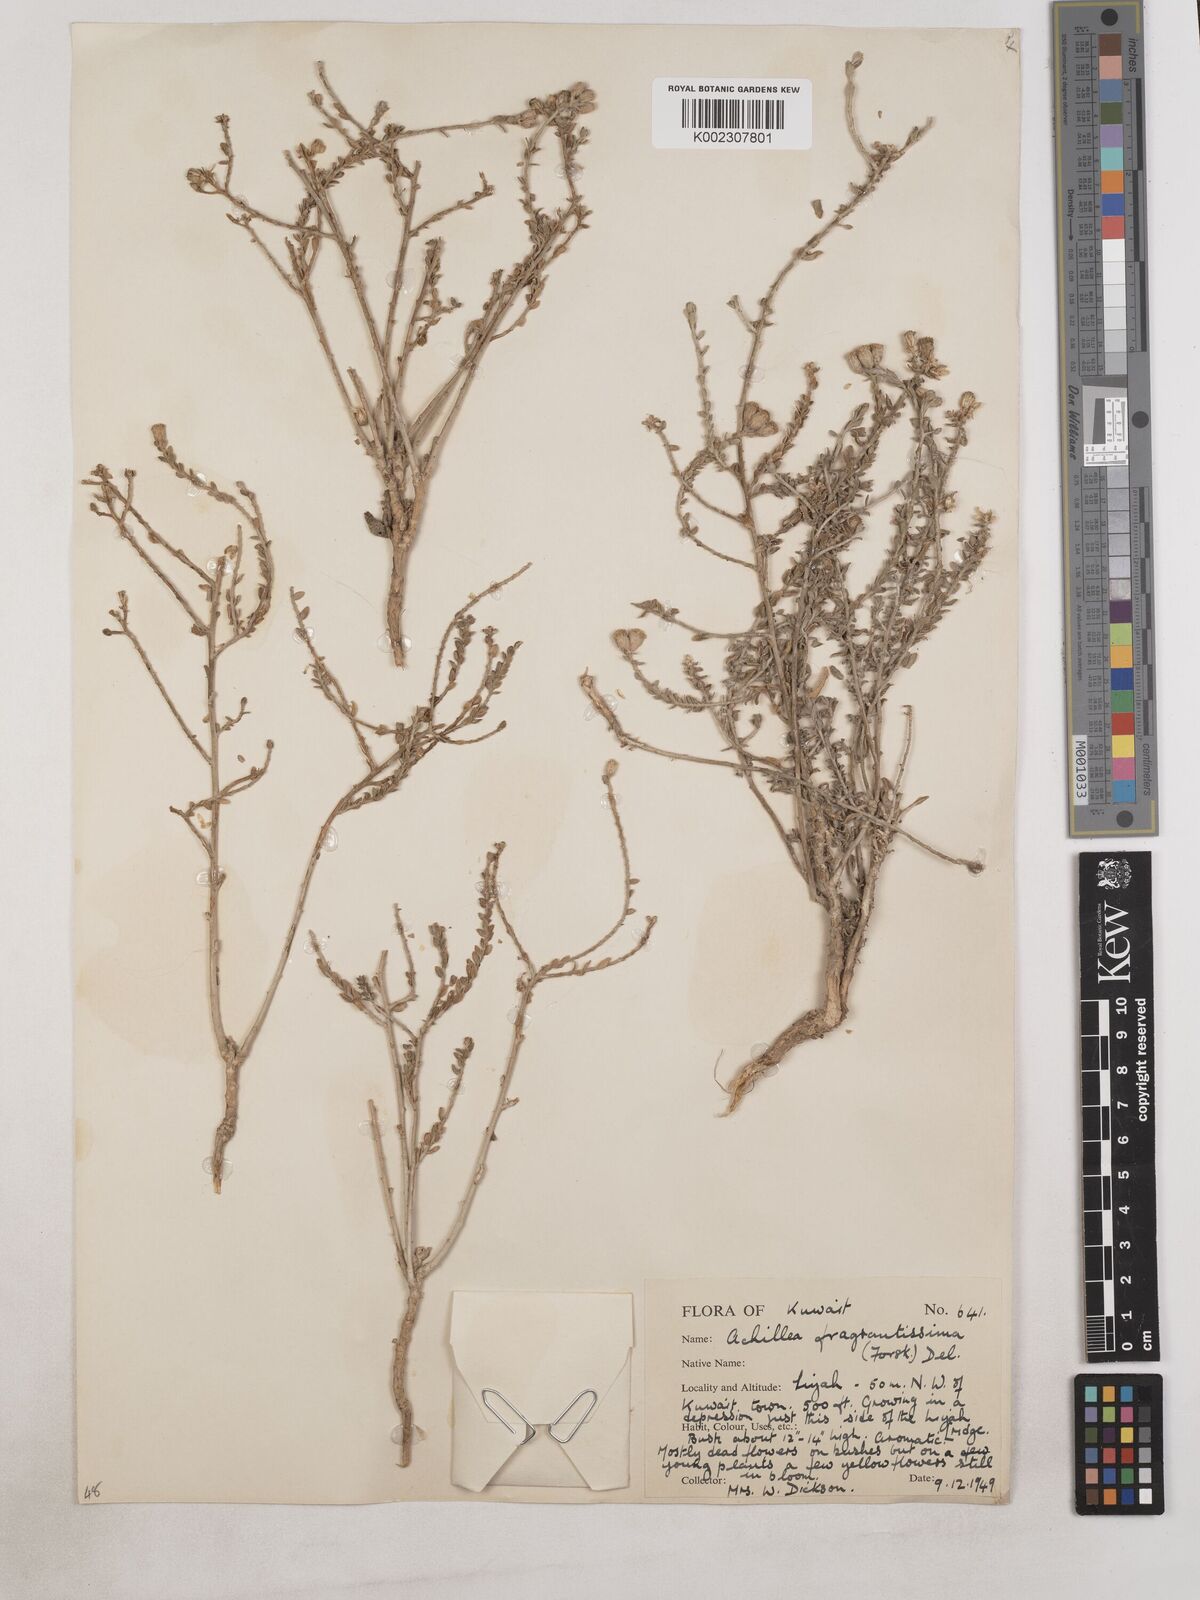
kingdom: Plantae
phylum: Tracheophyta
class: Magnoliopsida
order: Asterales
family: Asteraceae
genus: Achillea
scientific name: Achillea fragrantissima
